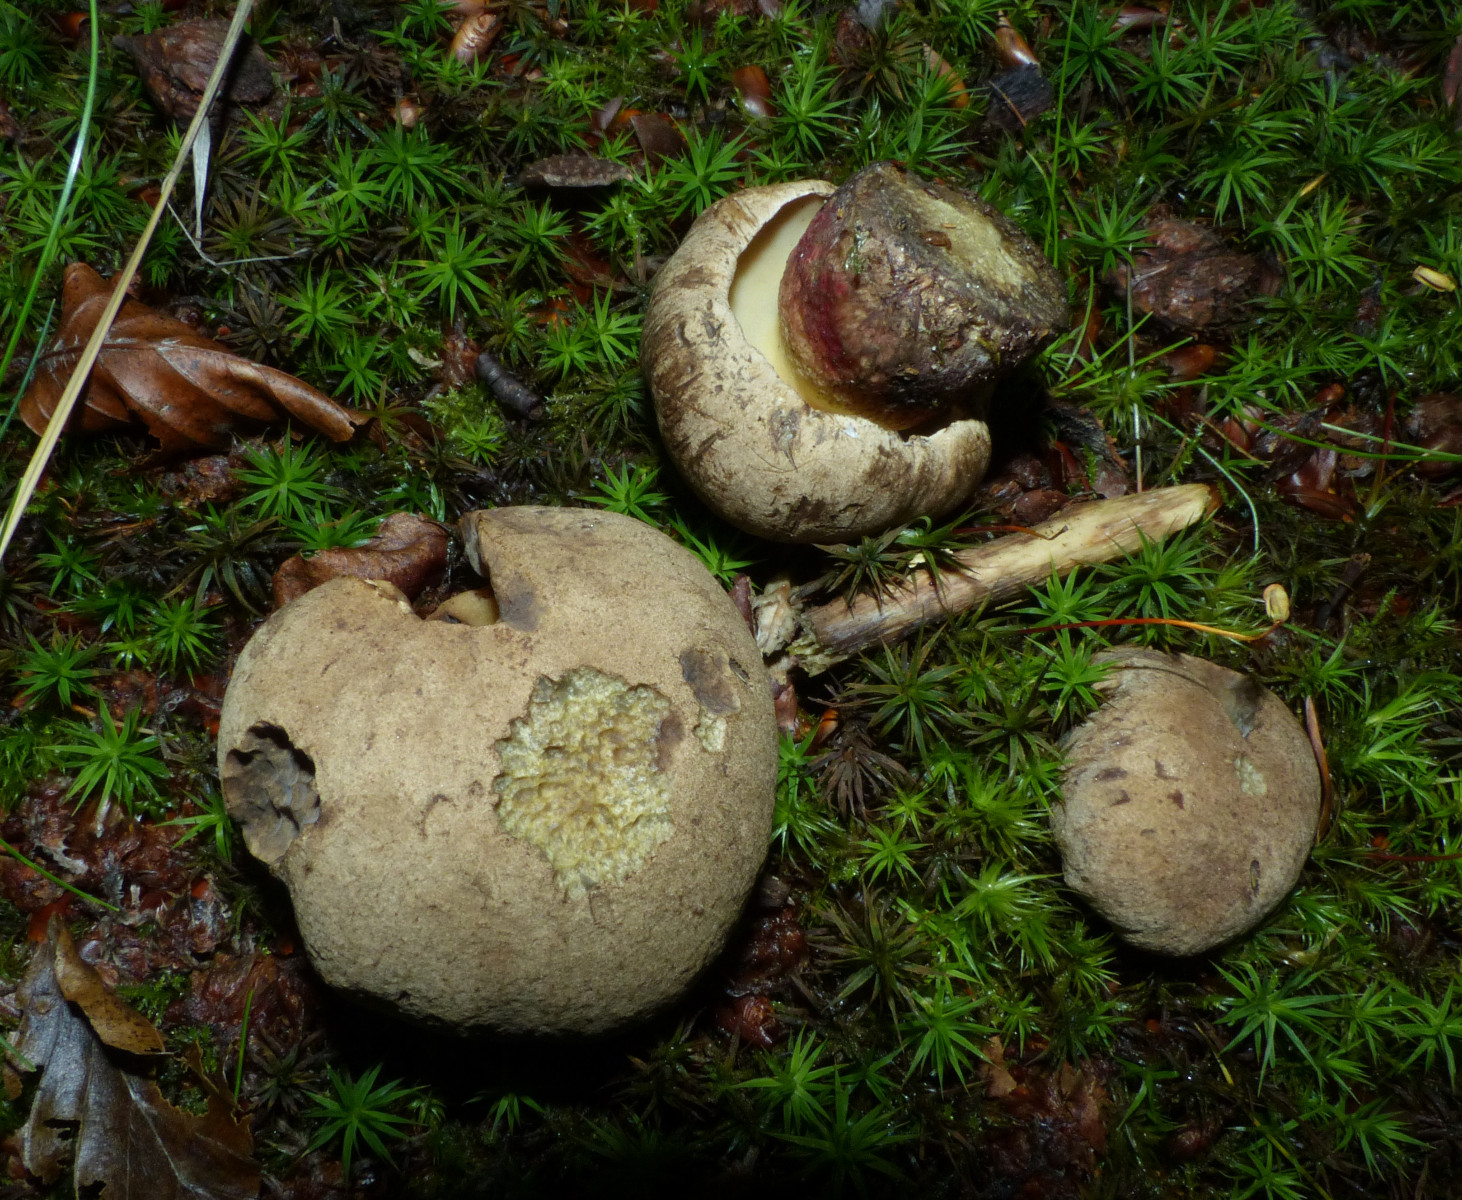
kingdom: Fungi
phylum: Basidiomycota
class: Agaricomycetes
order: Boletales
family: Boletaceae
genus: Caloboletus
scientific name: Caloboletus calopus
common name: skønfodet rørhat
